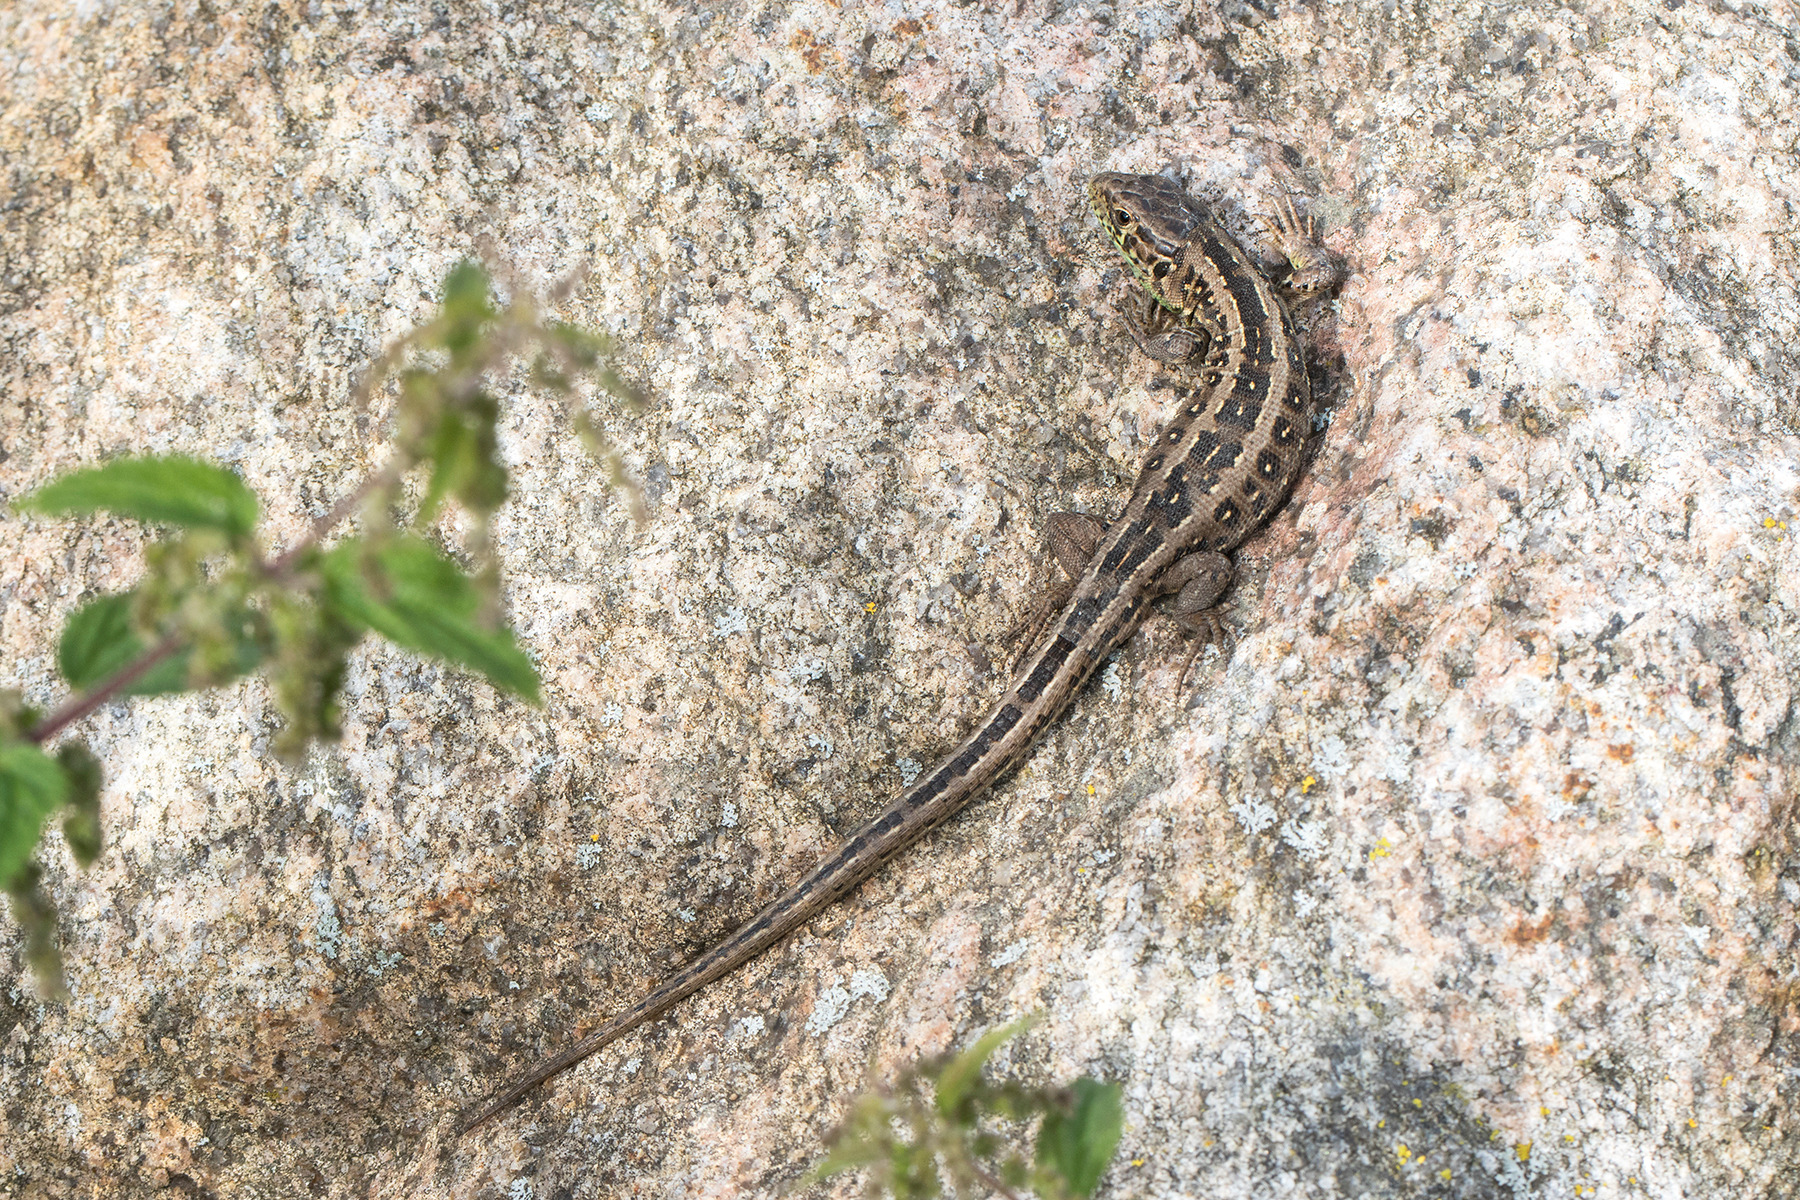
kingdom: Animalia
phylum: Chordata
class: Squamata
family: Lacertidae
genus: Lacerta
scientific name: Lacerta agilis
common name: Markfirben
